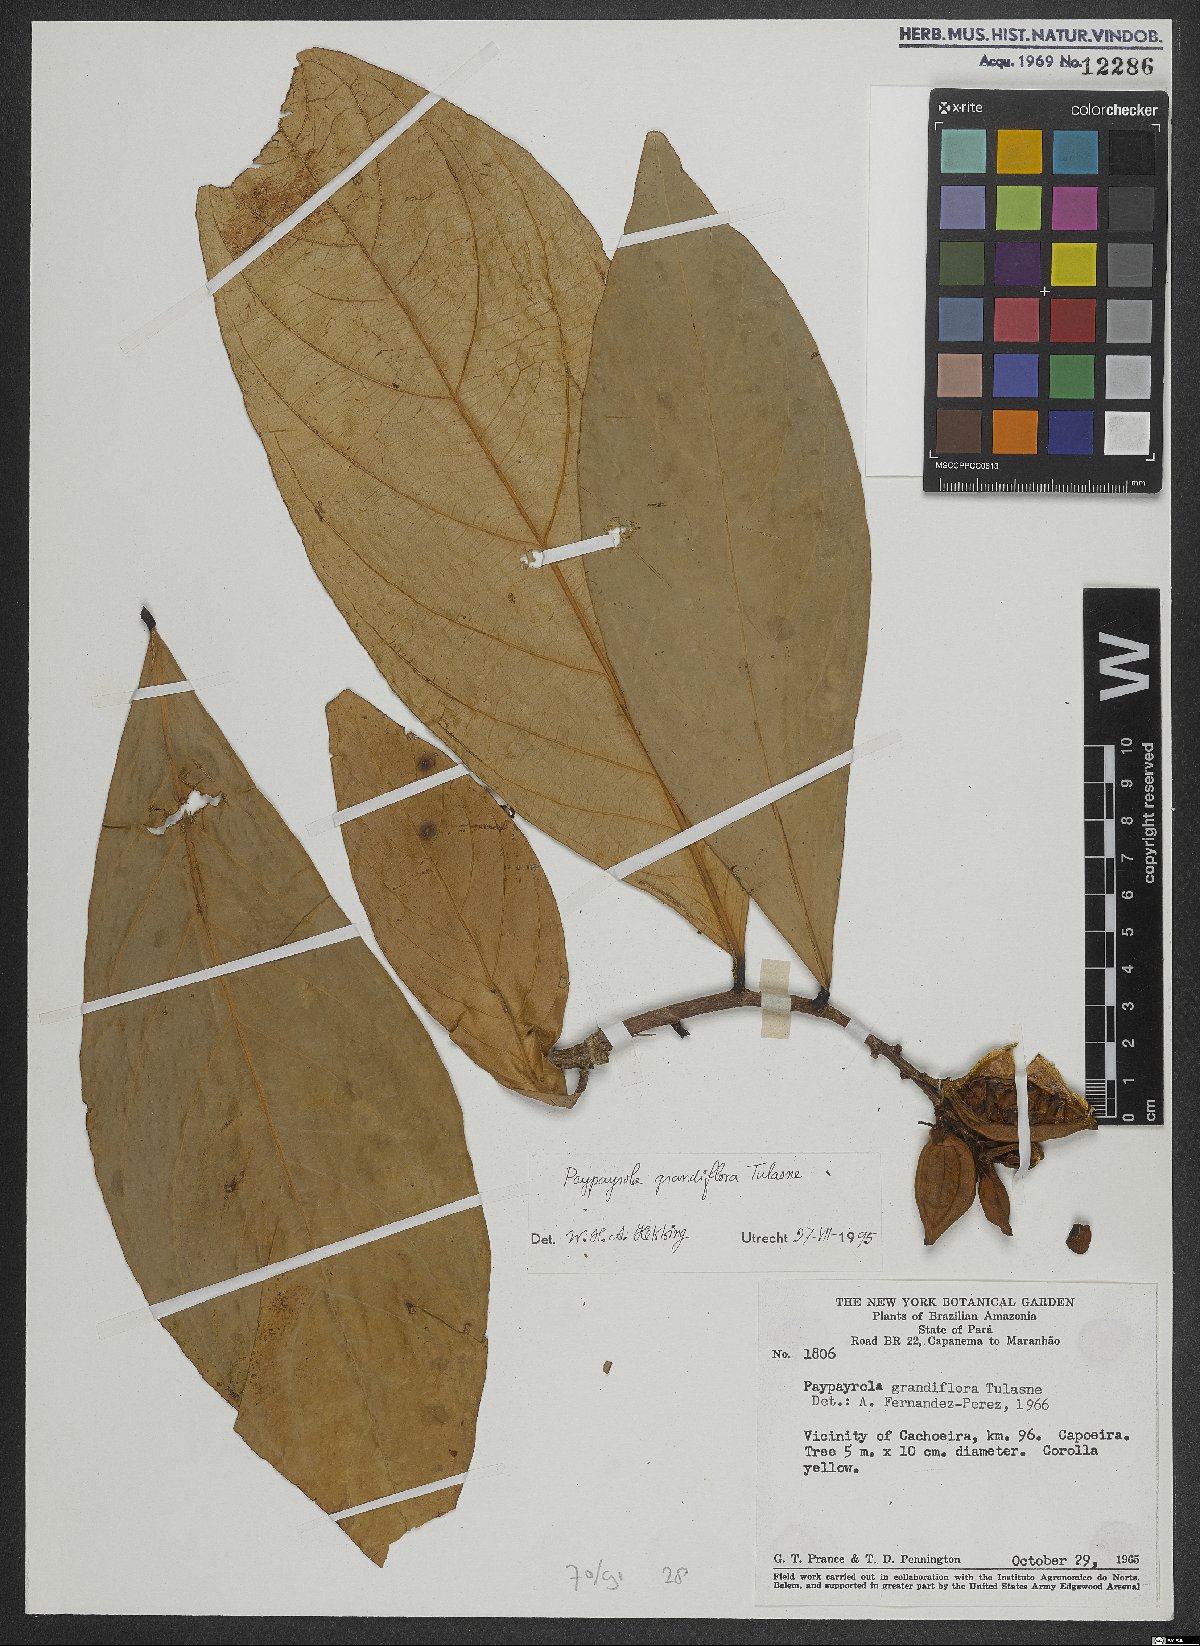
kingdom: Plantae
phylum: Tracheophyta
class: Magnoliopsida
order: Malpighiales
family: Violaceae
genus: Paypayrola
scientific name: Paypayrola grandiflora
